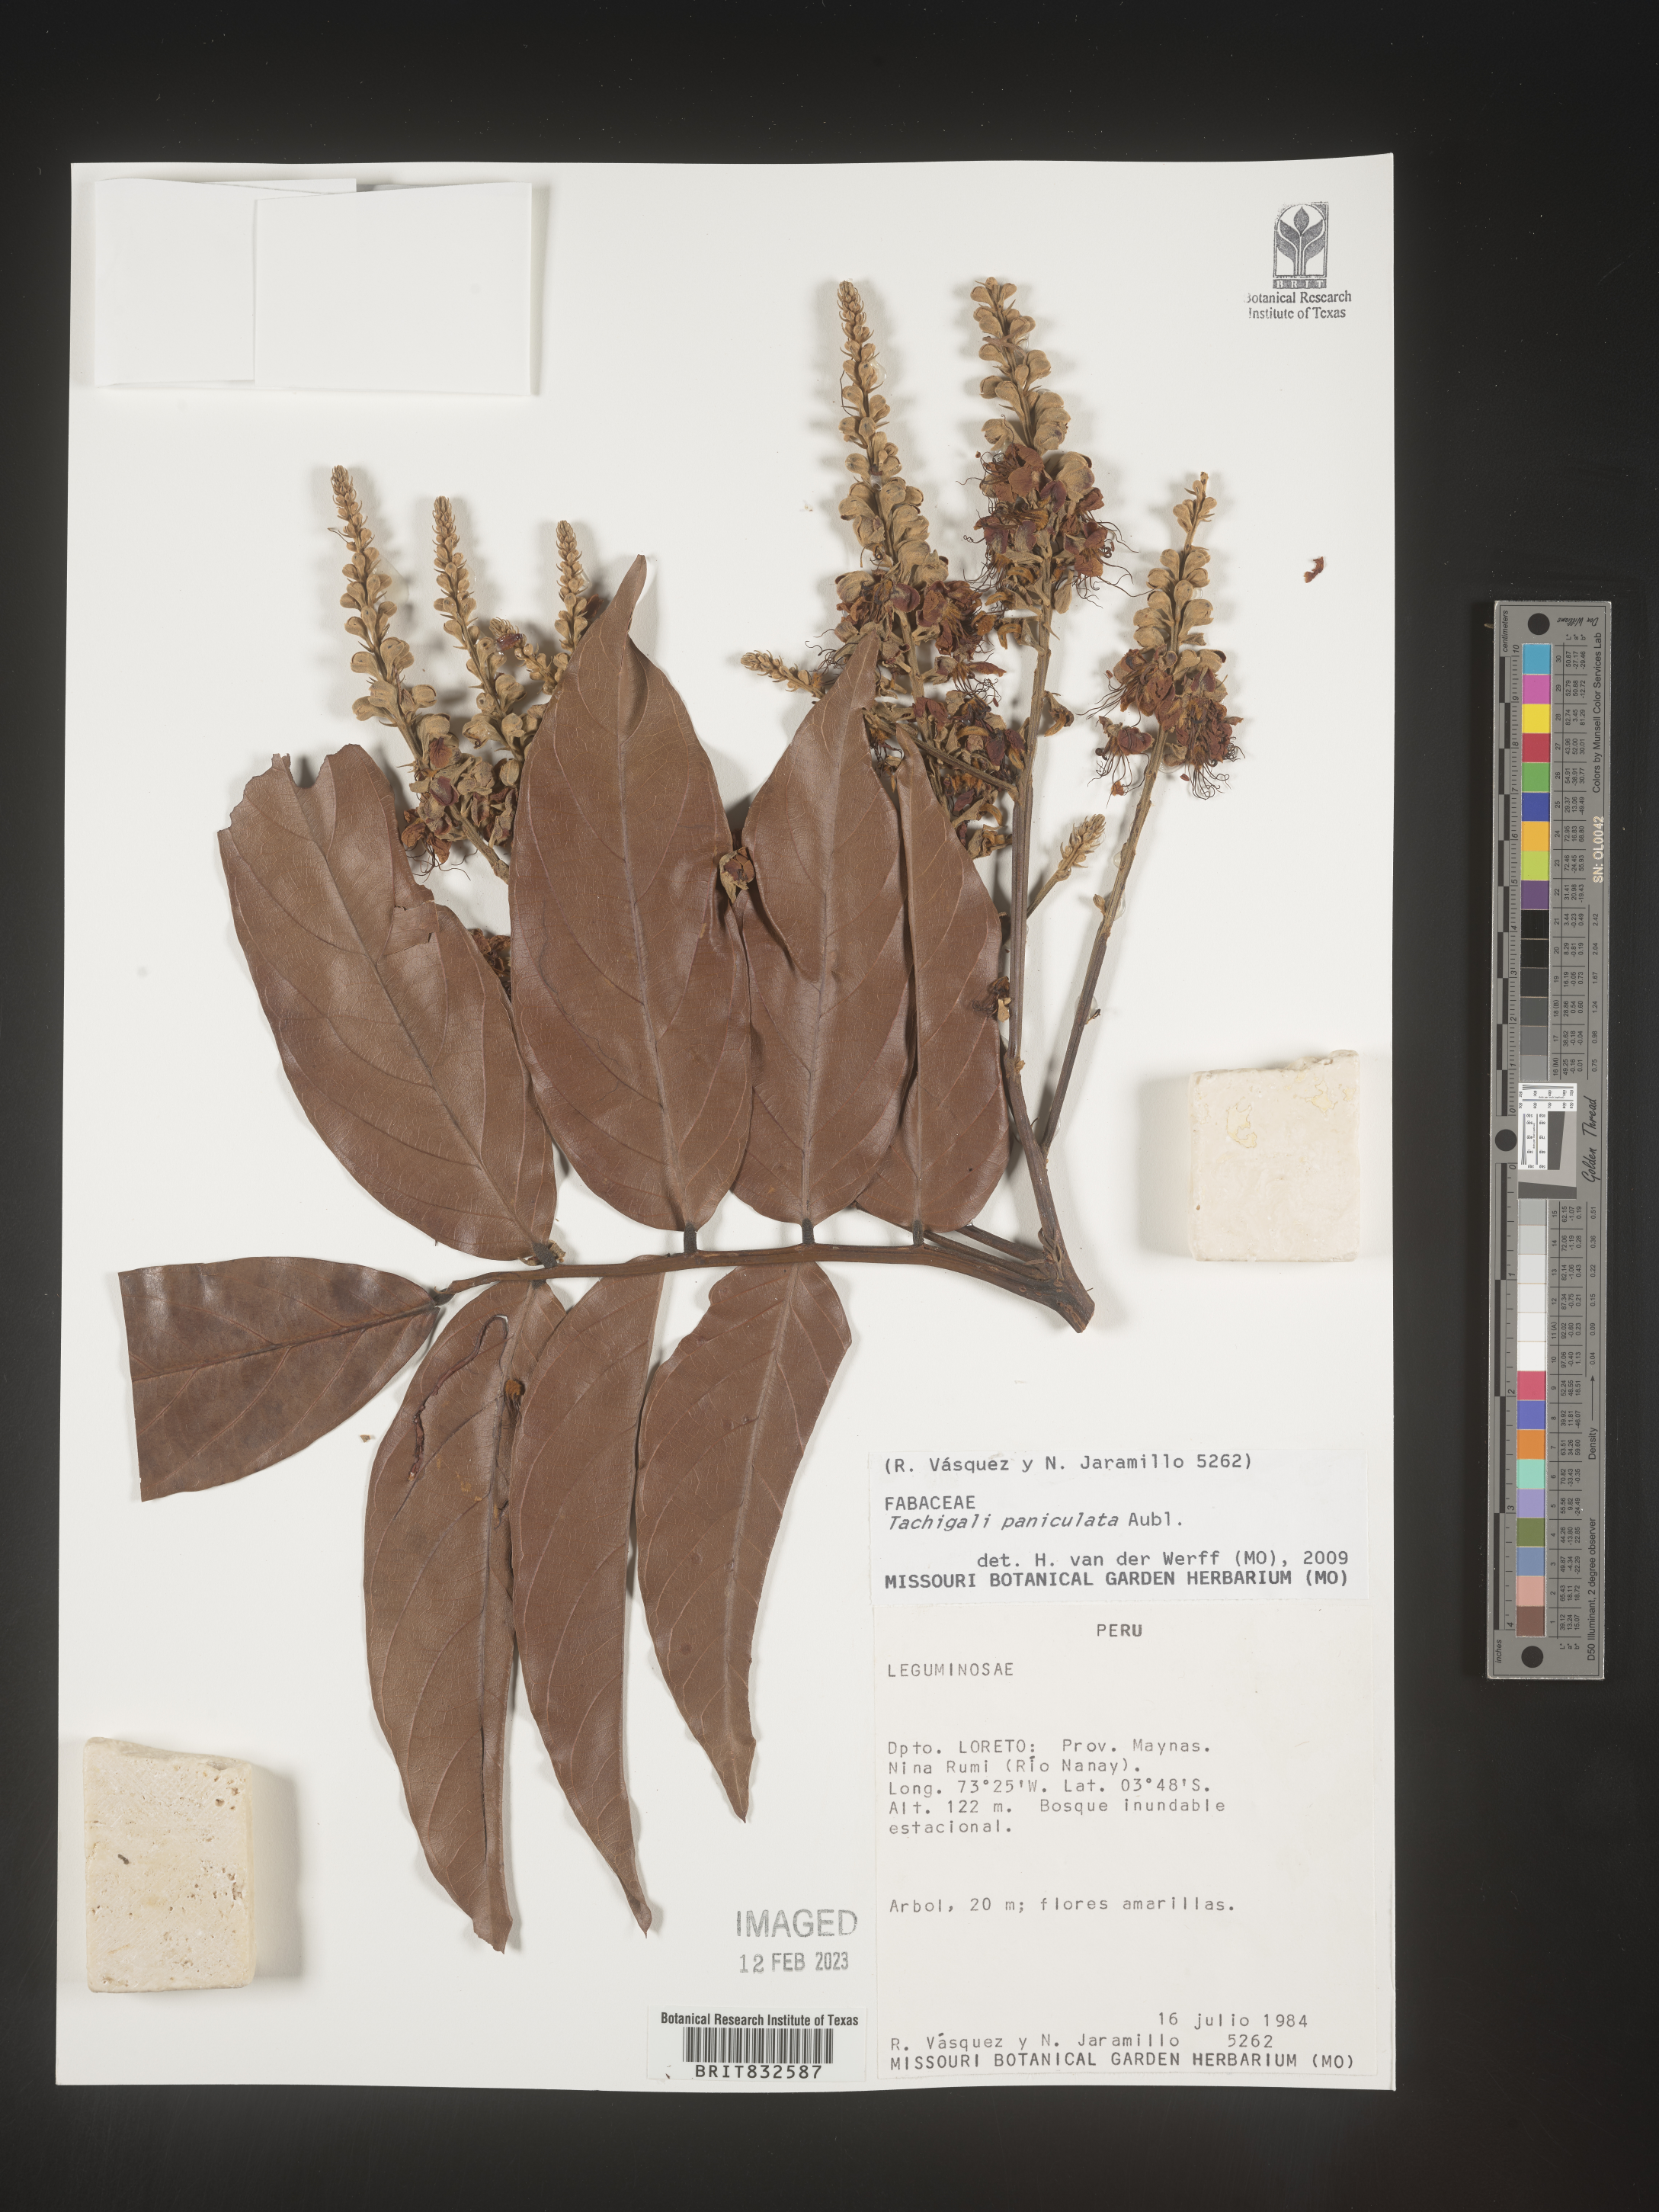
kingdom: Plantae
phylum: Tracheophyta
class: Magnoliopsida
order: Fabales
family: Fabaceae
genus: Tachigali
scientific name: Tachigali
